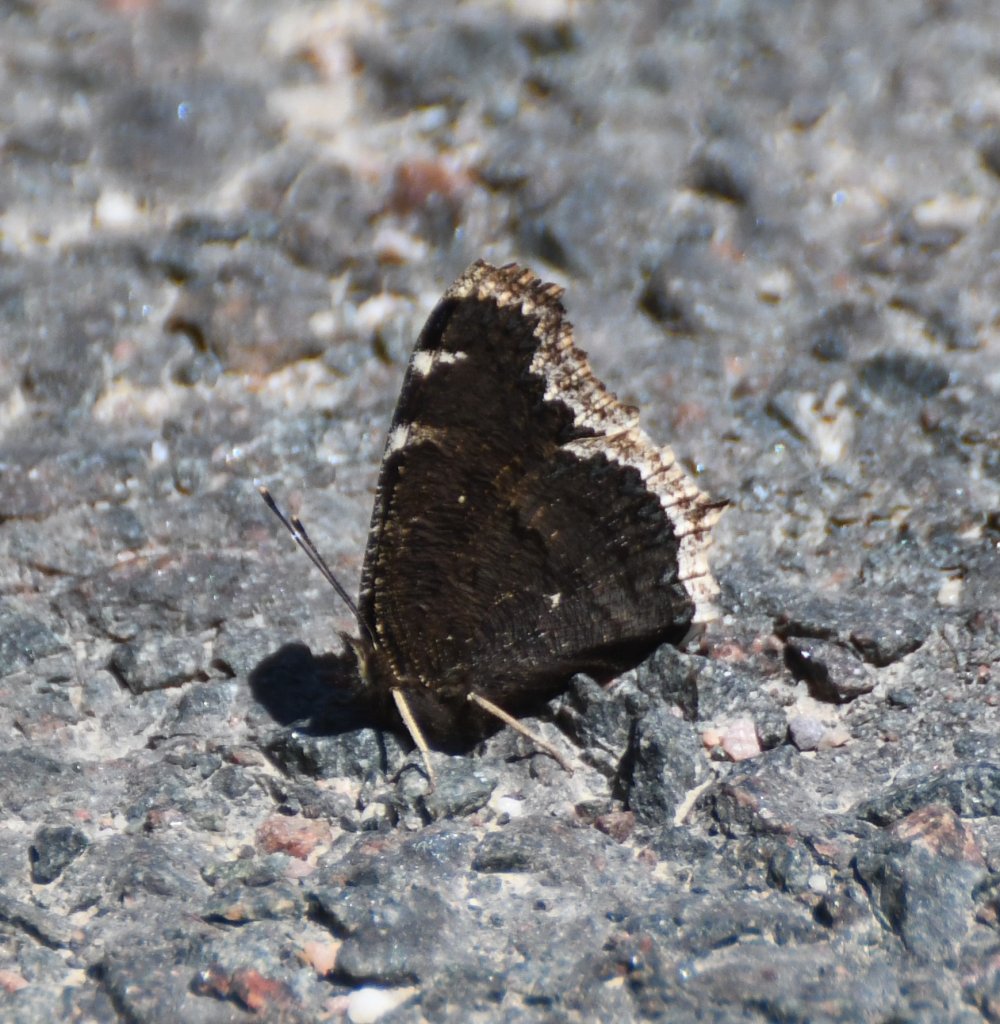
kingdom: Animalia
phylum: Arthropoda
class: Insecta
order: Lepidoptera
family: Nymphalidae
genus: Nymphalis
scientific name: Nymphalis antiopa
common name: Mourning Cloak
